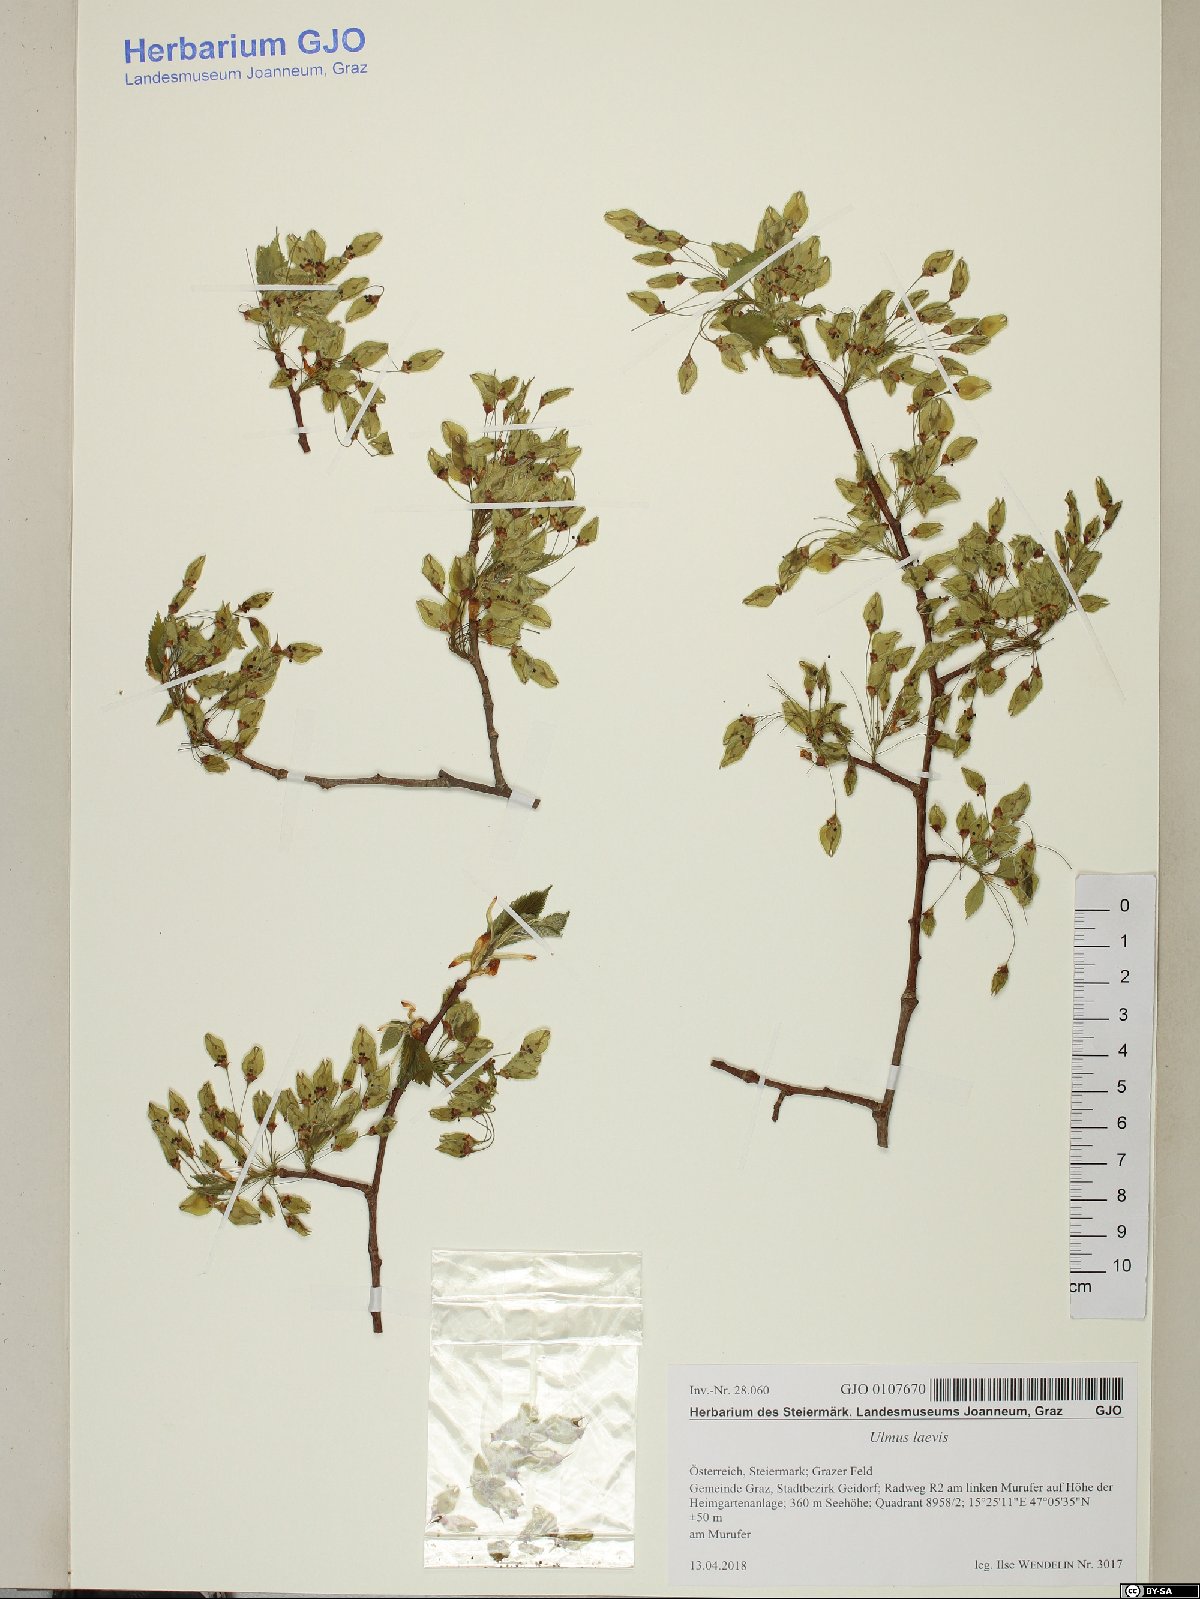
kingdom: Plantae
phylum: Tracheophyta
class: Magnoliopsida
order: Rosales
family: Ulmaceae
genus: Ulmus
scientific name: Ulmus laevis
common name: European white-elm
